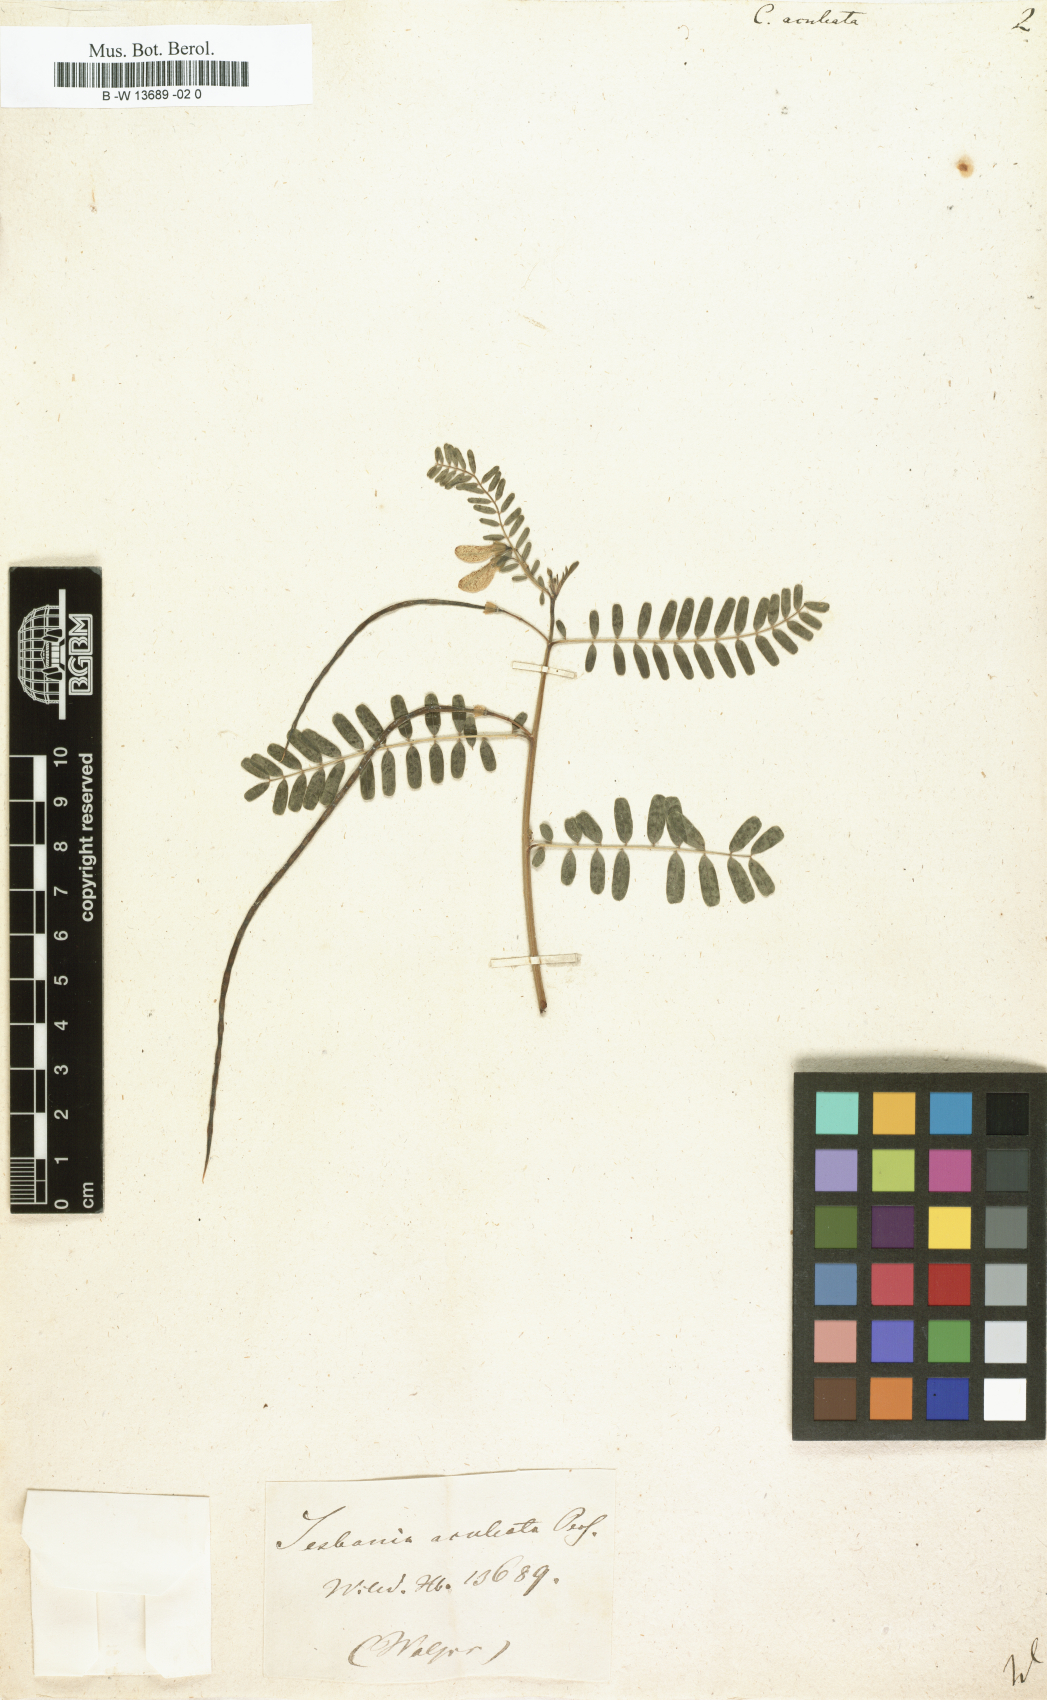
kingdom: Plantae
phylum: Tracheophyta
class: Magnoliopsida
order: Fabales
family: Fabaceae
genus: Sesbania
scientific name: Sesbania bispinosa
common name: Sesbania pea
